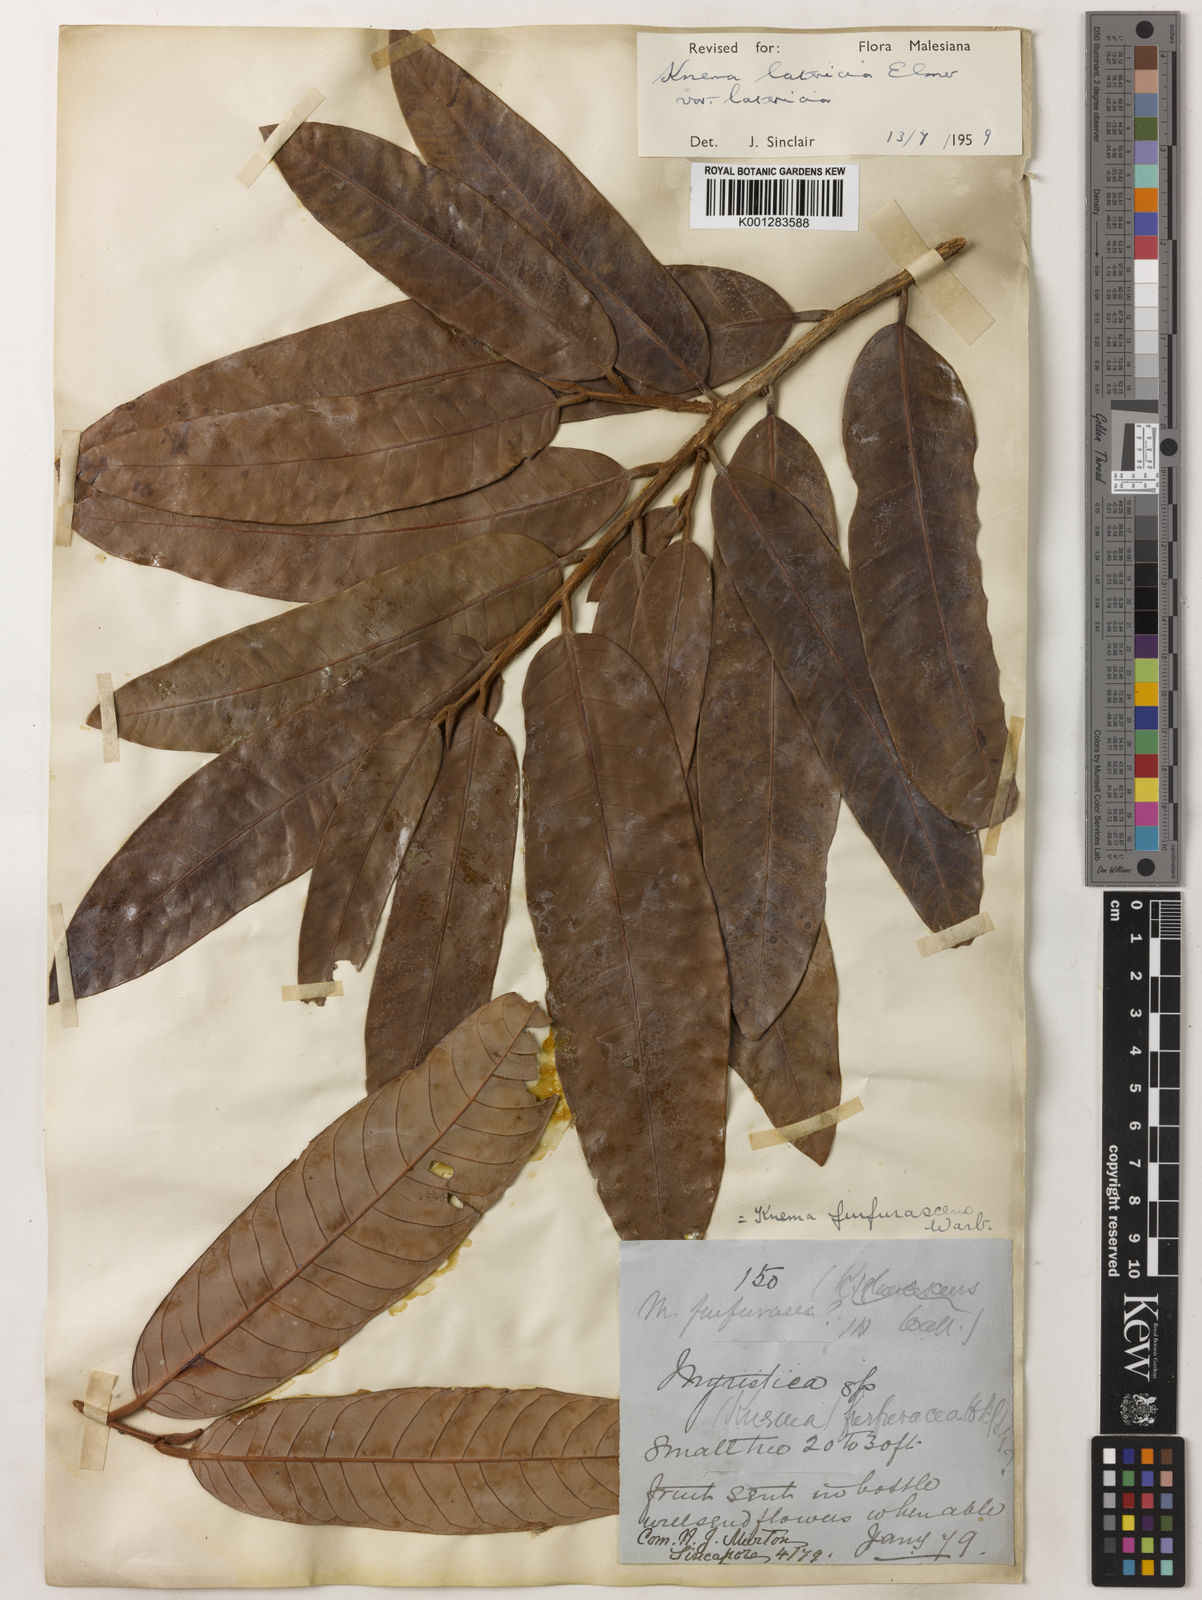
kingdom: Plantae
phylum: Tracheophyta
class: Magnoliopsida
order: Magnoliales
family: Myristicaceae
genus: Knema
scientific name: Knema latericia
